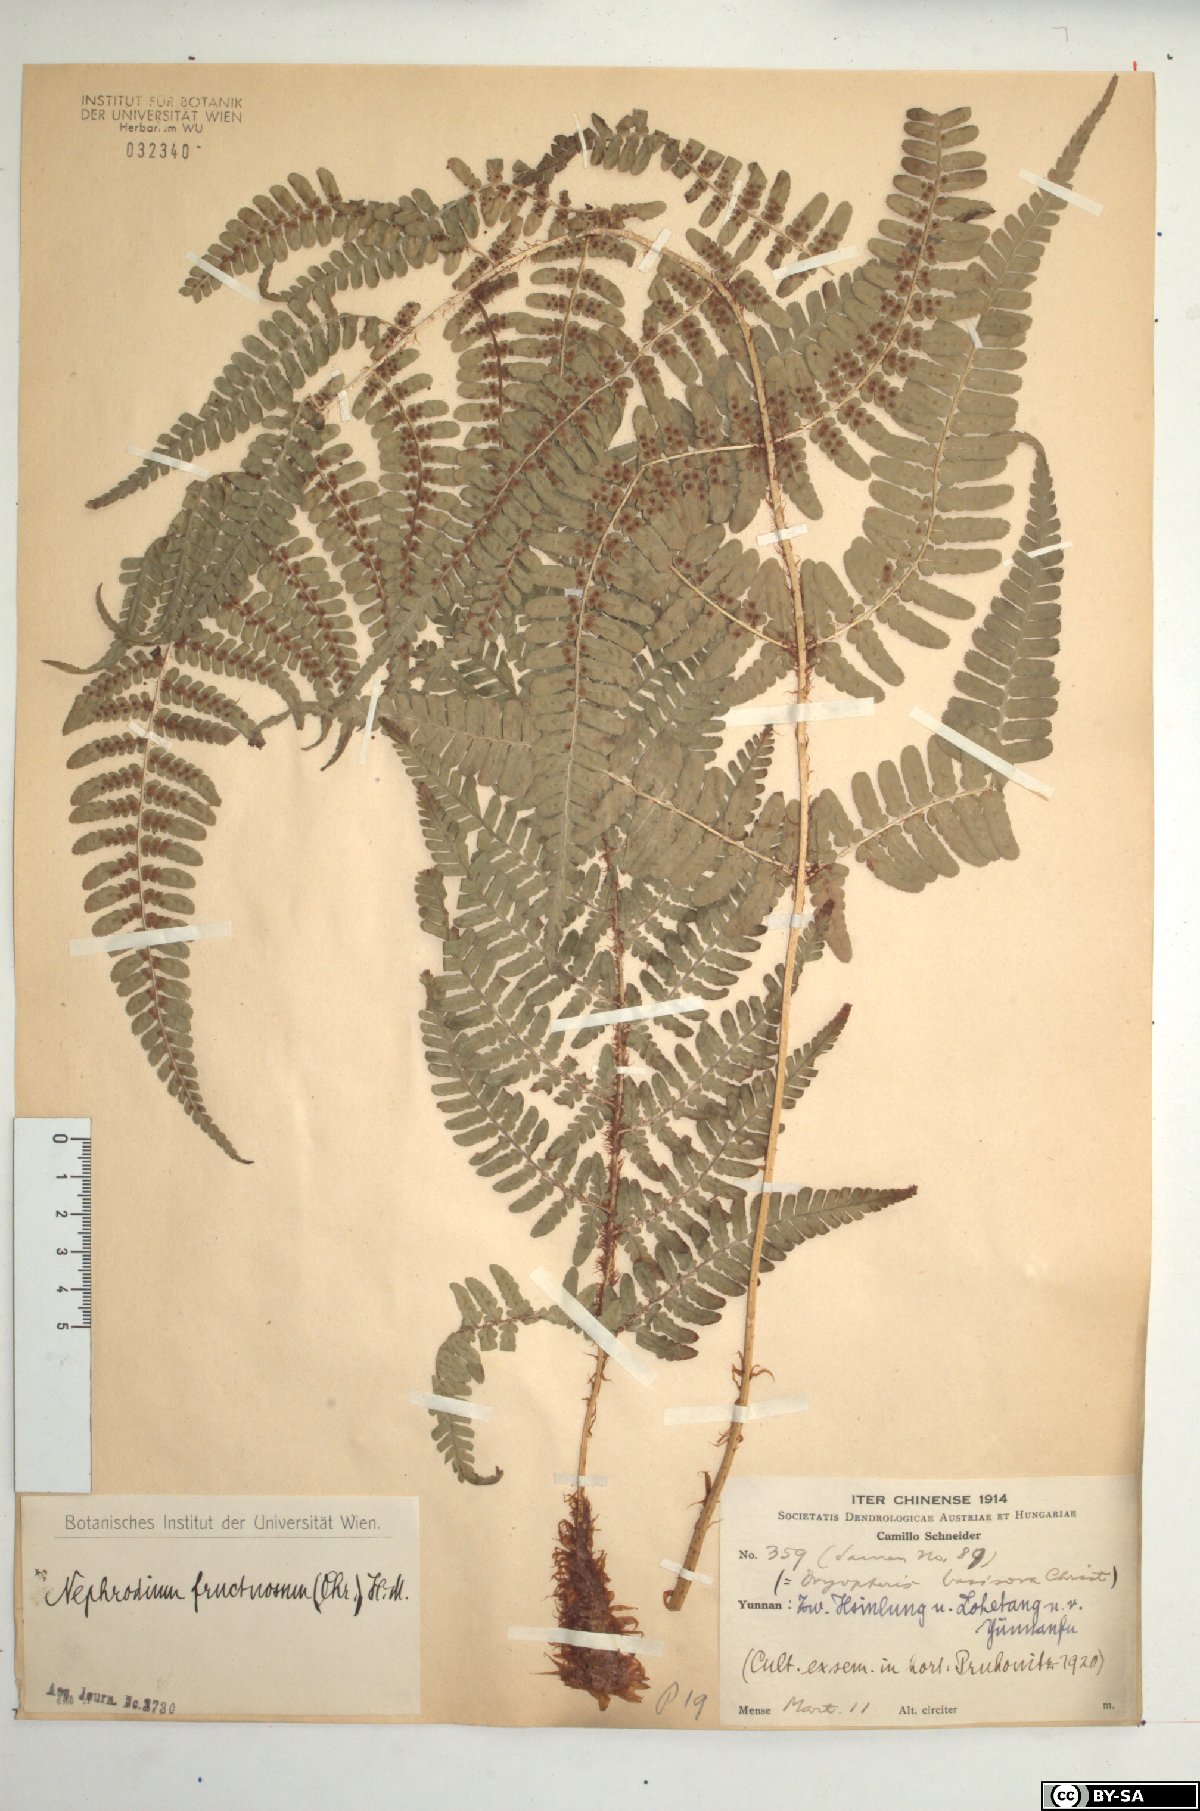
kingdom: Plantae
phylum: Tracheophyta
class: Polypodiopsida
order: Polypodiales
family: Dryopteridaceae
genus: Dryopteris
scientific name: Dryopteris fructuosa
